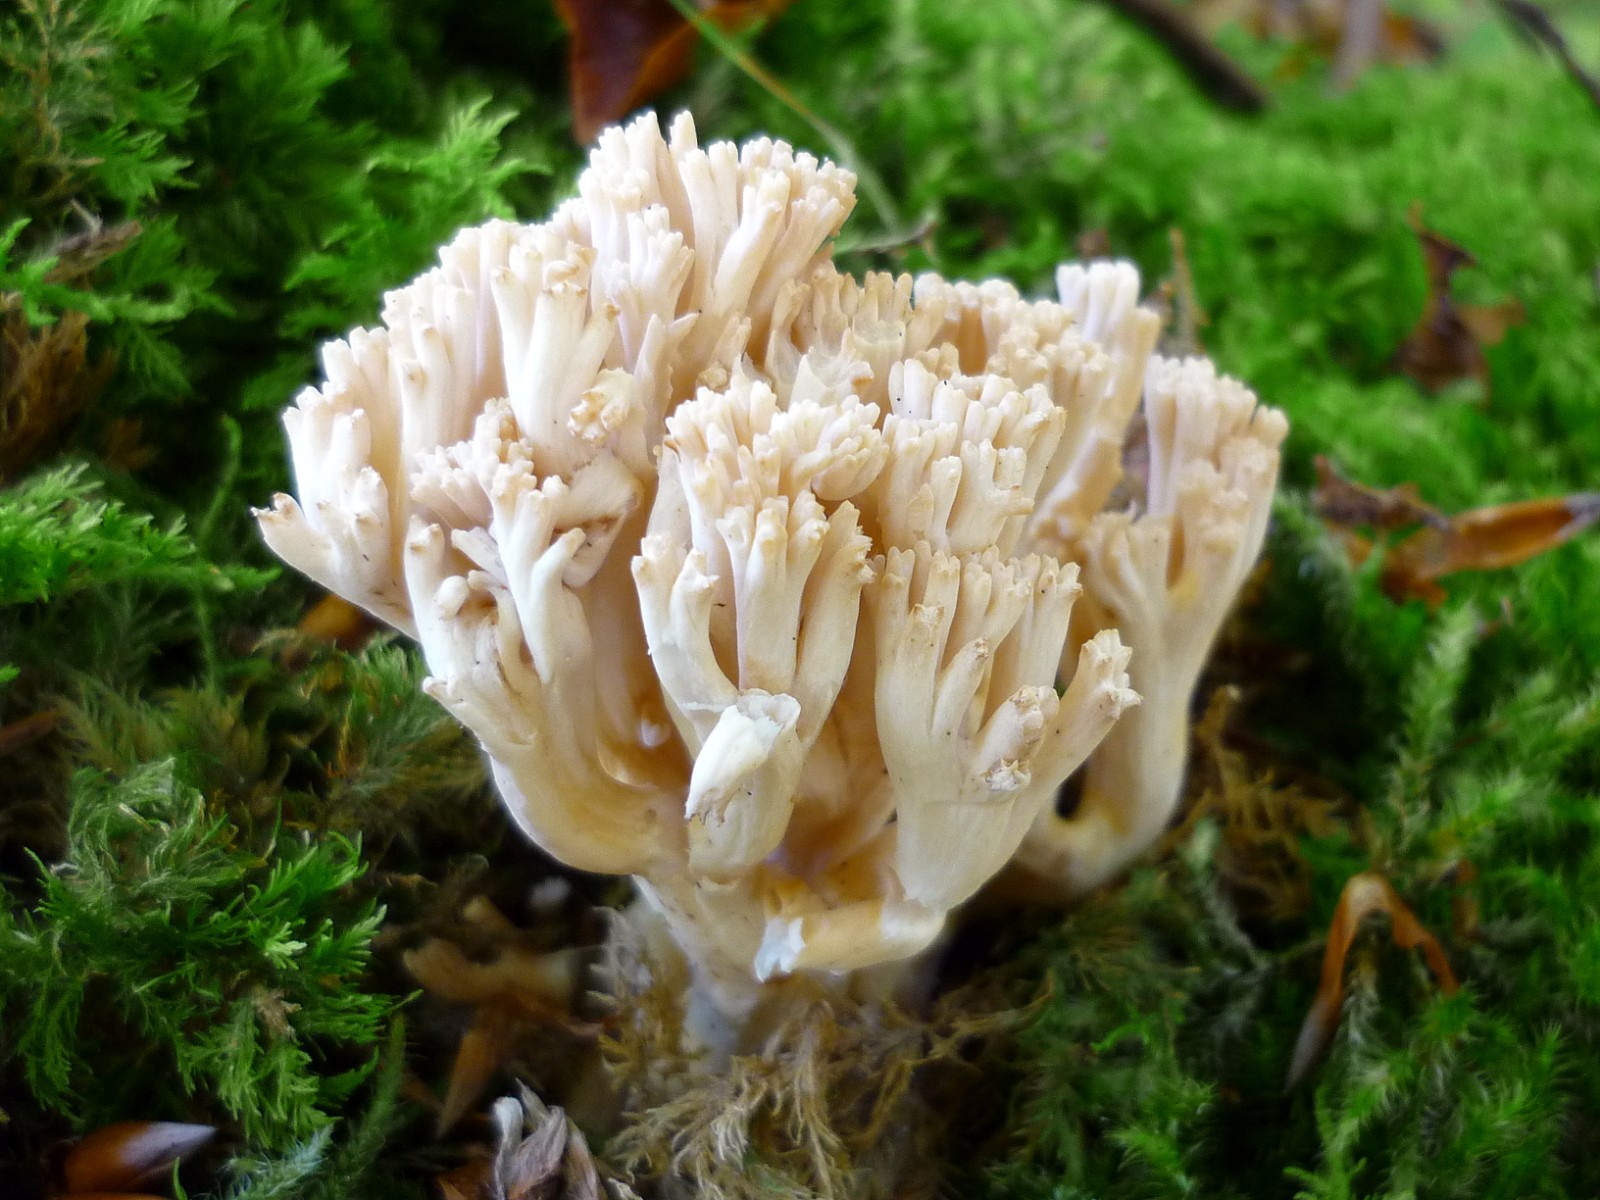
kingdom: Fungi
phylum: Basidiomycota
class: Agaricomycetes
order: Gomphales
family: Gomphaceae
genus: Ramaria
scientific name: Ramaria
